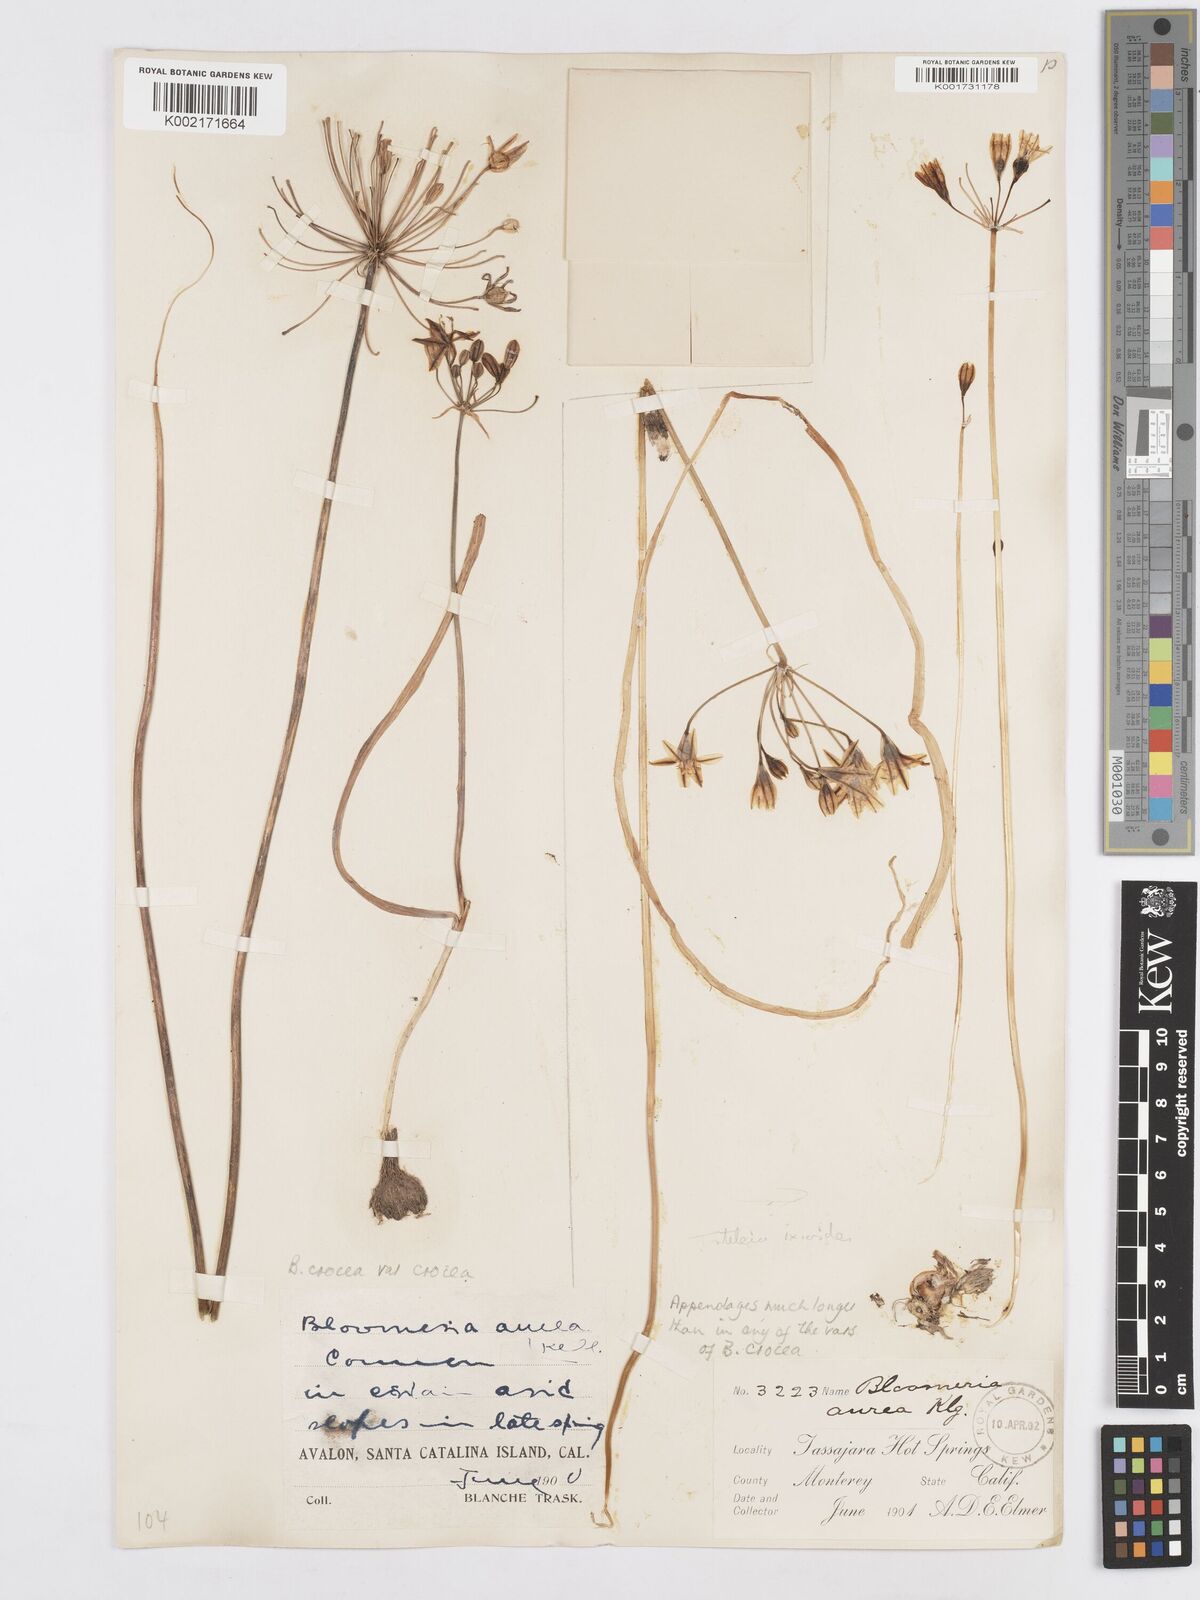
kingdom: Plantae
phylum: Tracheophyta
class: Liliopsida
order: Asparagales
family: Asparagaceae
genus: Bloomeria
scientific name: Bloomeria crocea
